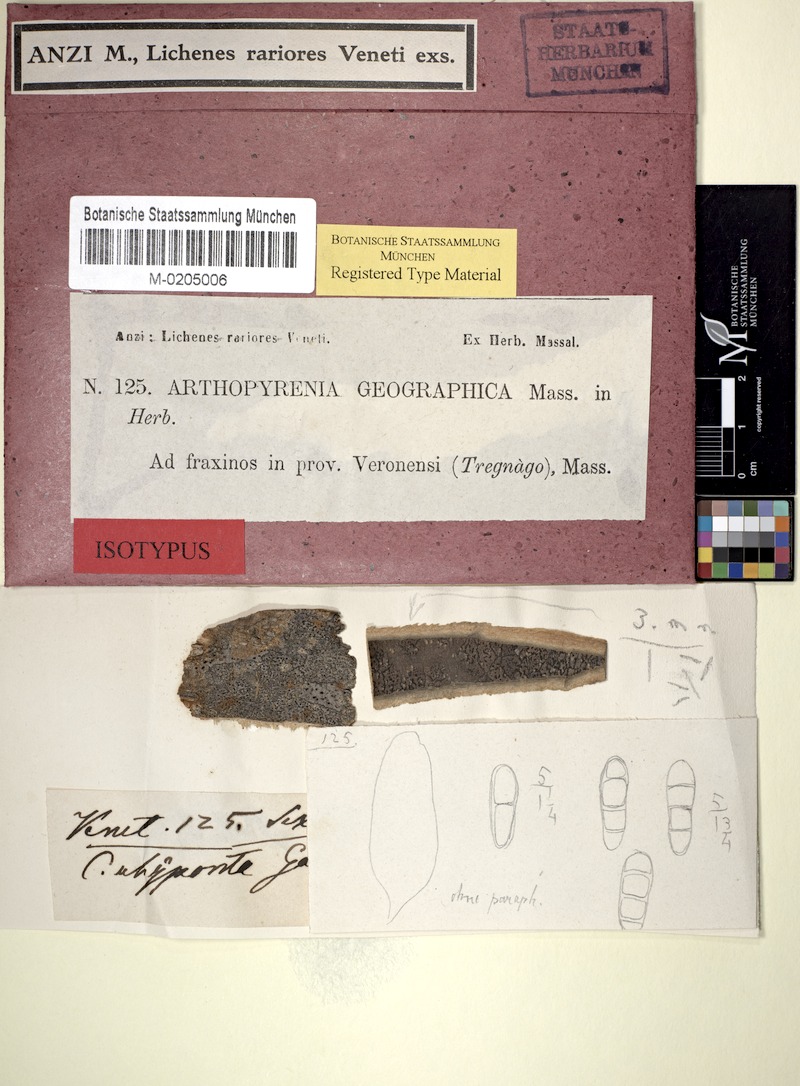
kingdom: Fungi
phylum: Ascomycota
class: Dothideomycetes
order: Pleosporales
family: Naetrocymbaceae
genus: Naetrocymbe
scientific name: Naetrocymbe punctiformis
